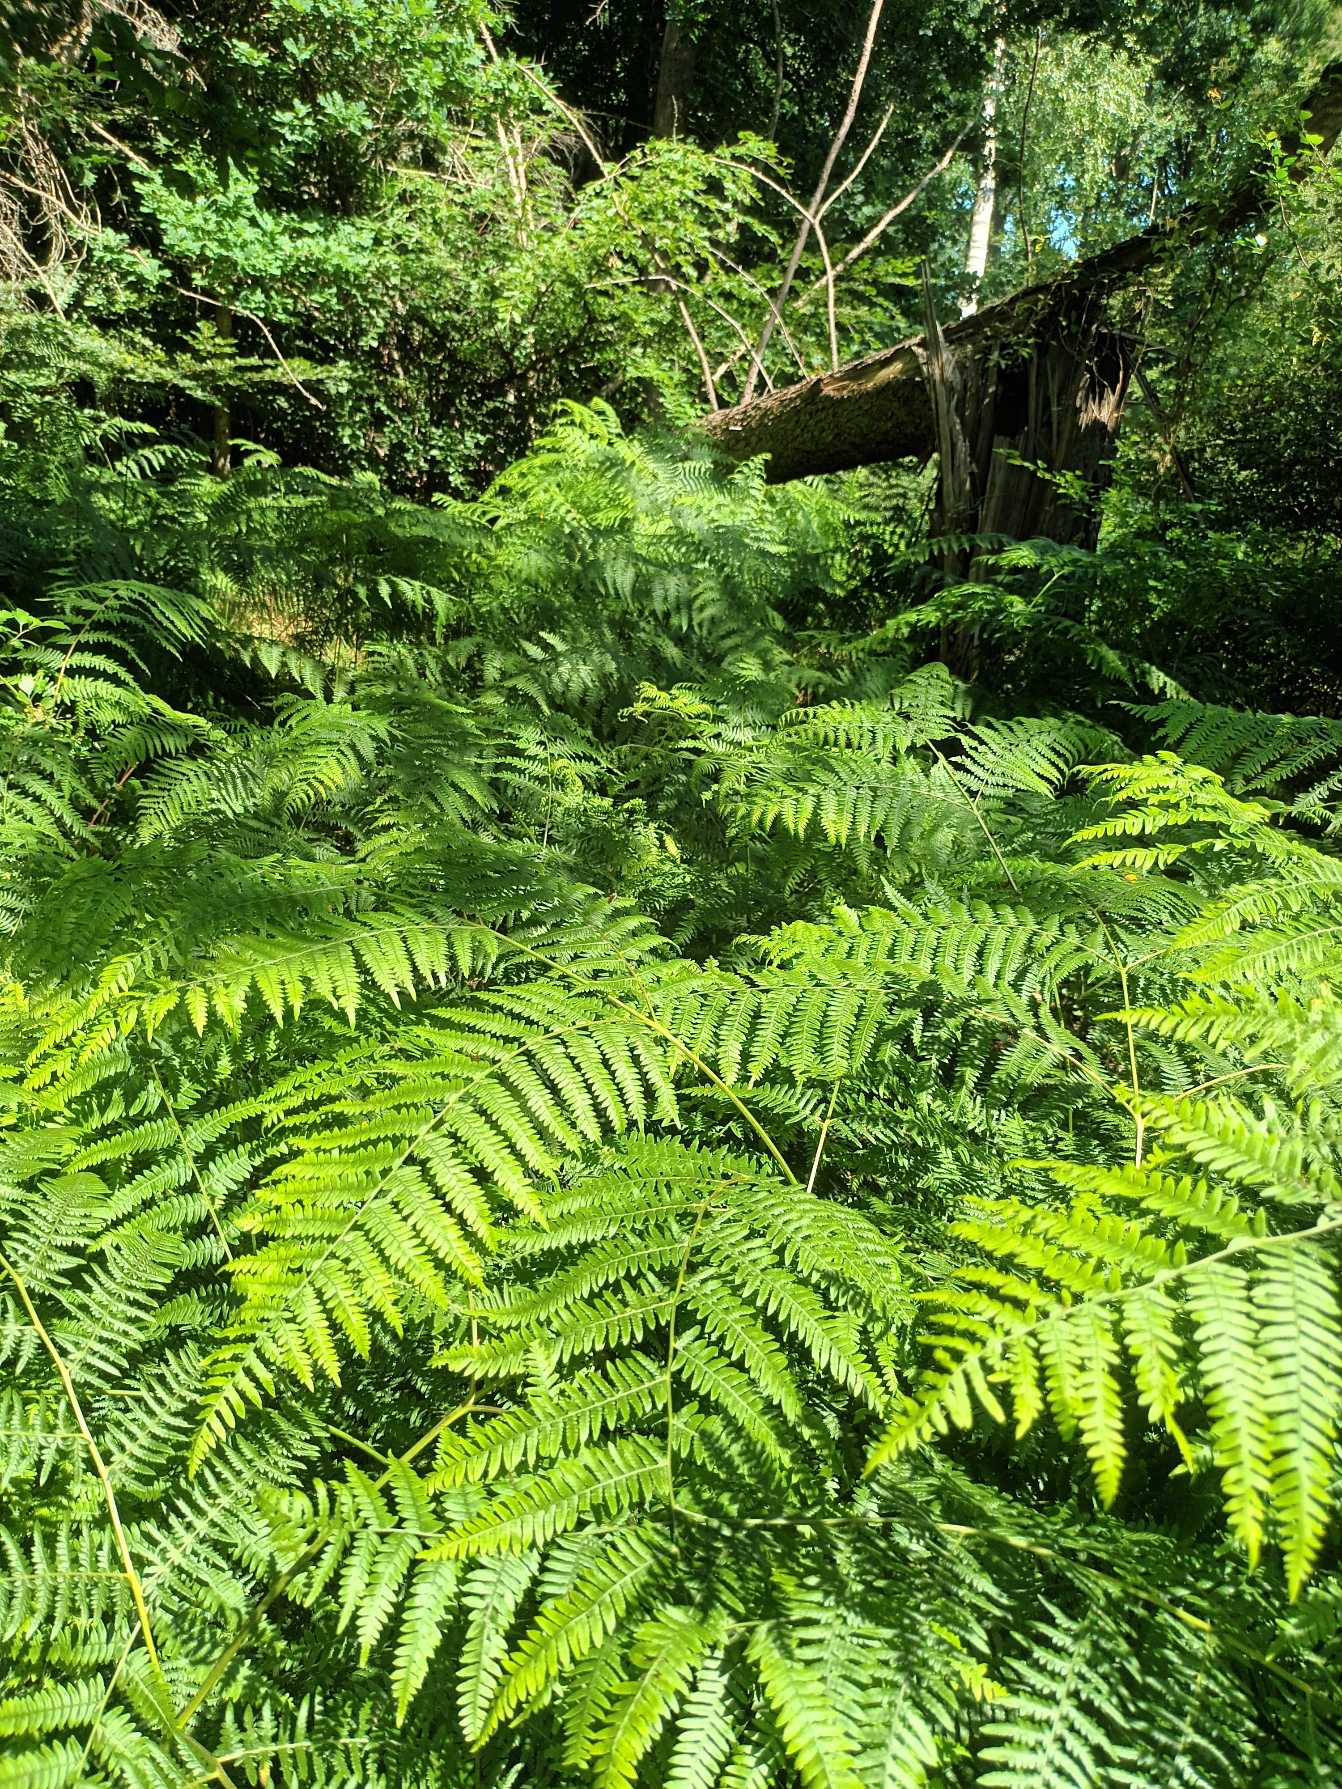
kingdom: Plantae
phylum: Tracheophyta
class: Polypodiopsida
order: Polypodiales
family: Dennstaedtiaceae
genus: Pteridium
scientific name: Pteridium aquilinum
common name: Ørnebregne
